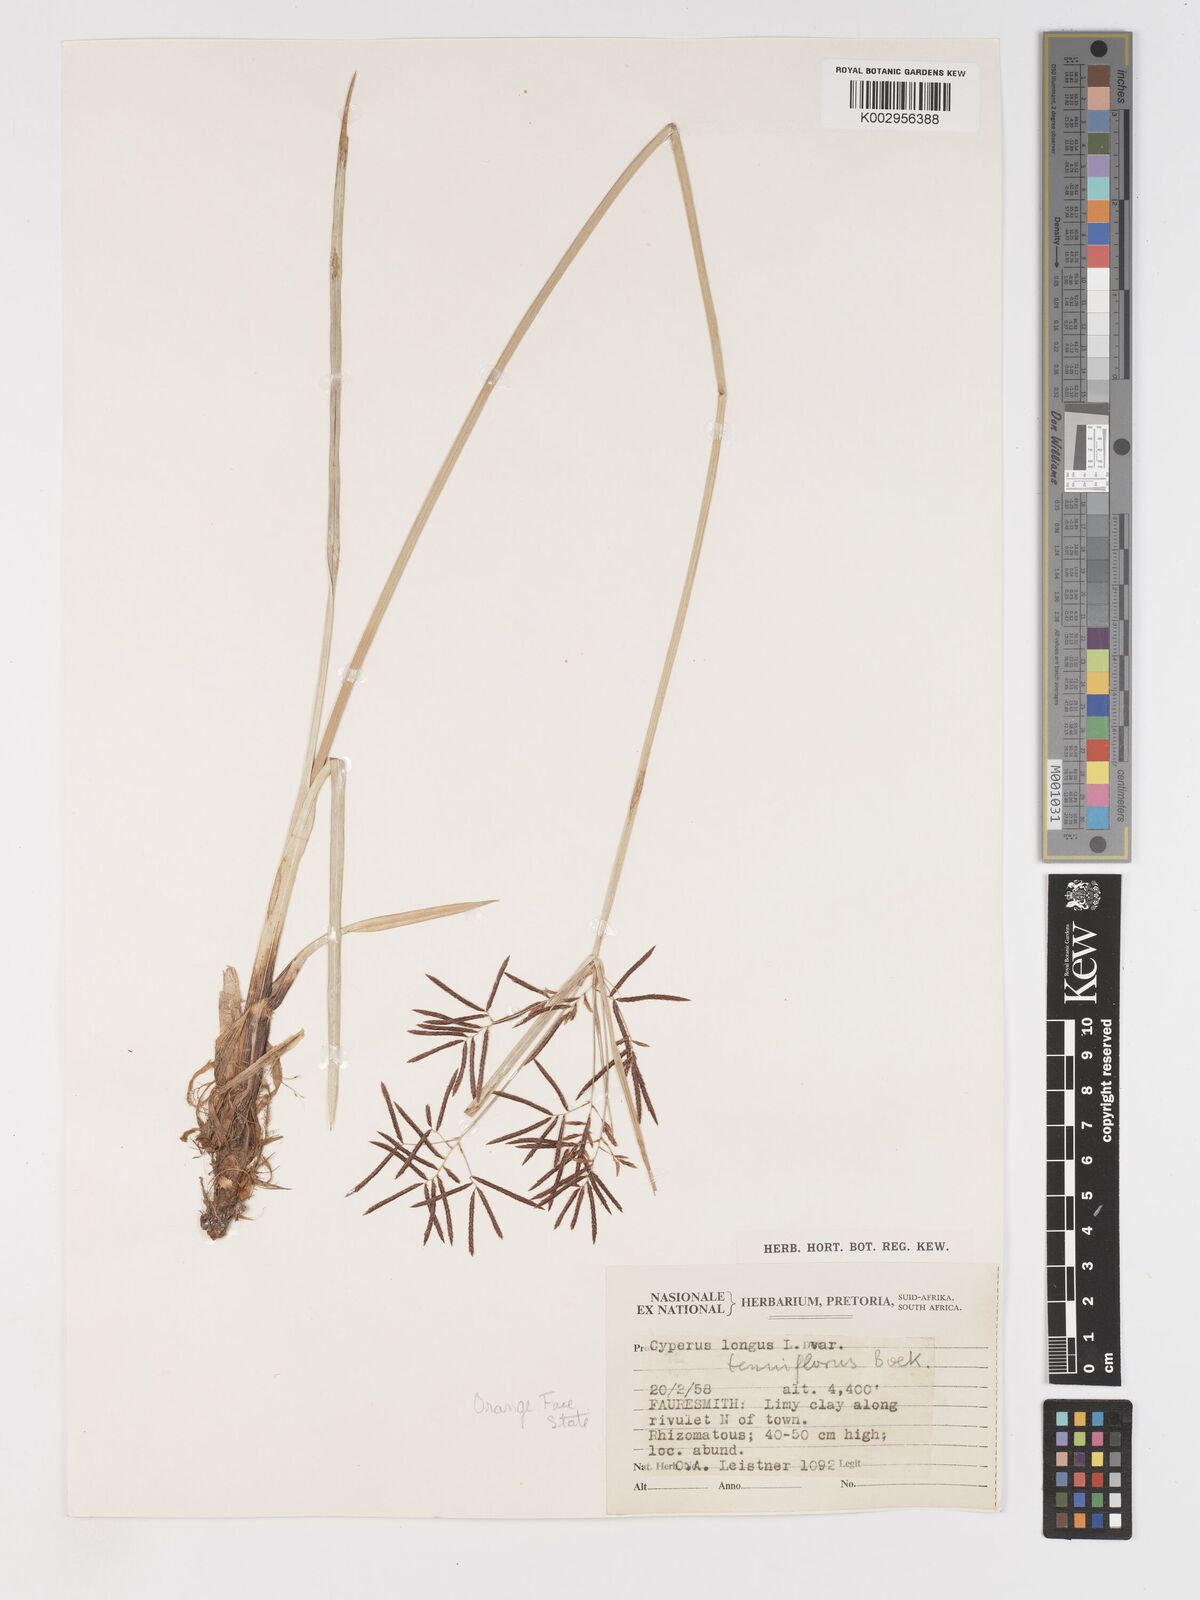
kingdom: Plantae
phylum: Tracheophyta
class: Liliopsida
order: Poales
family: Cyperaceae
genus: Cyperus
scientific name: Cyperus longus
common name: Galingale
